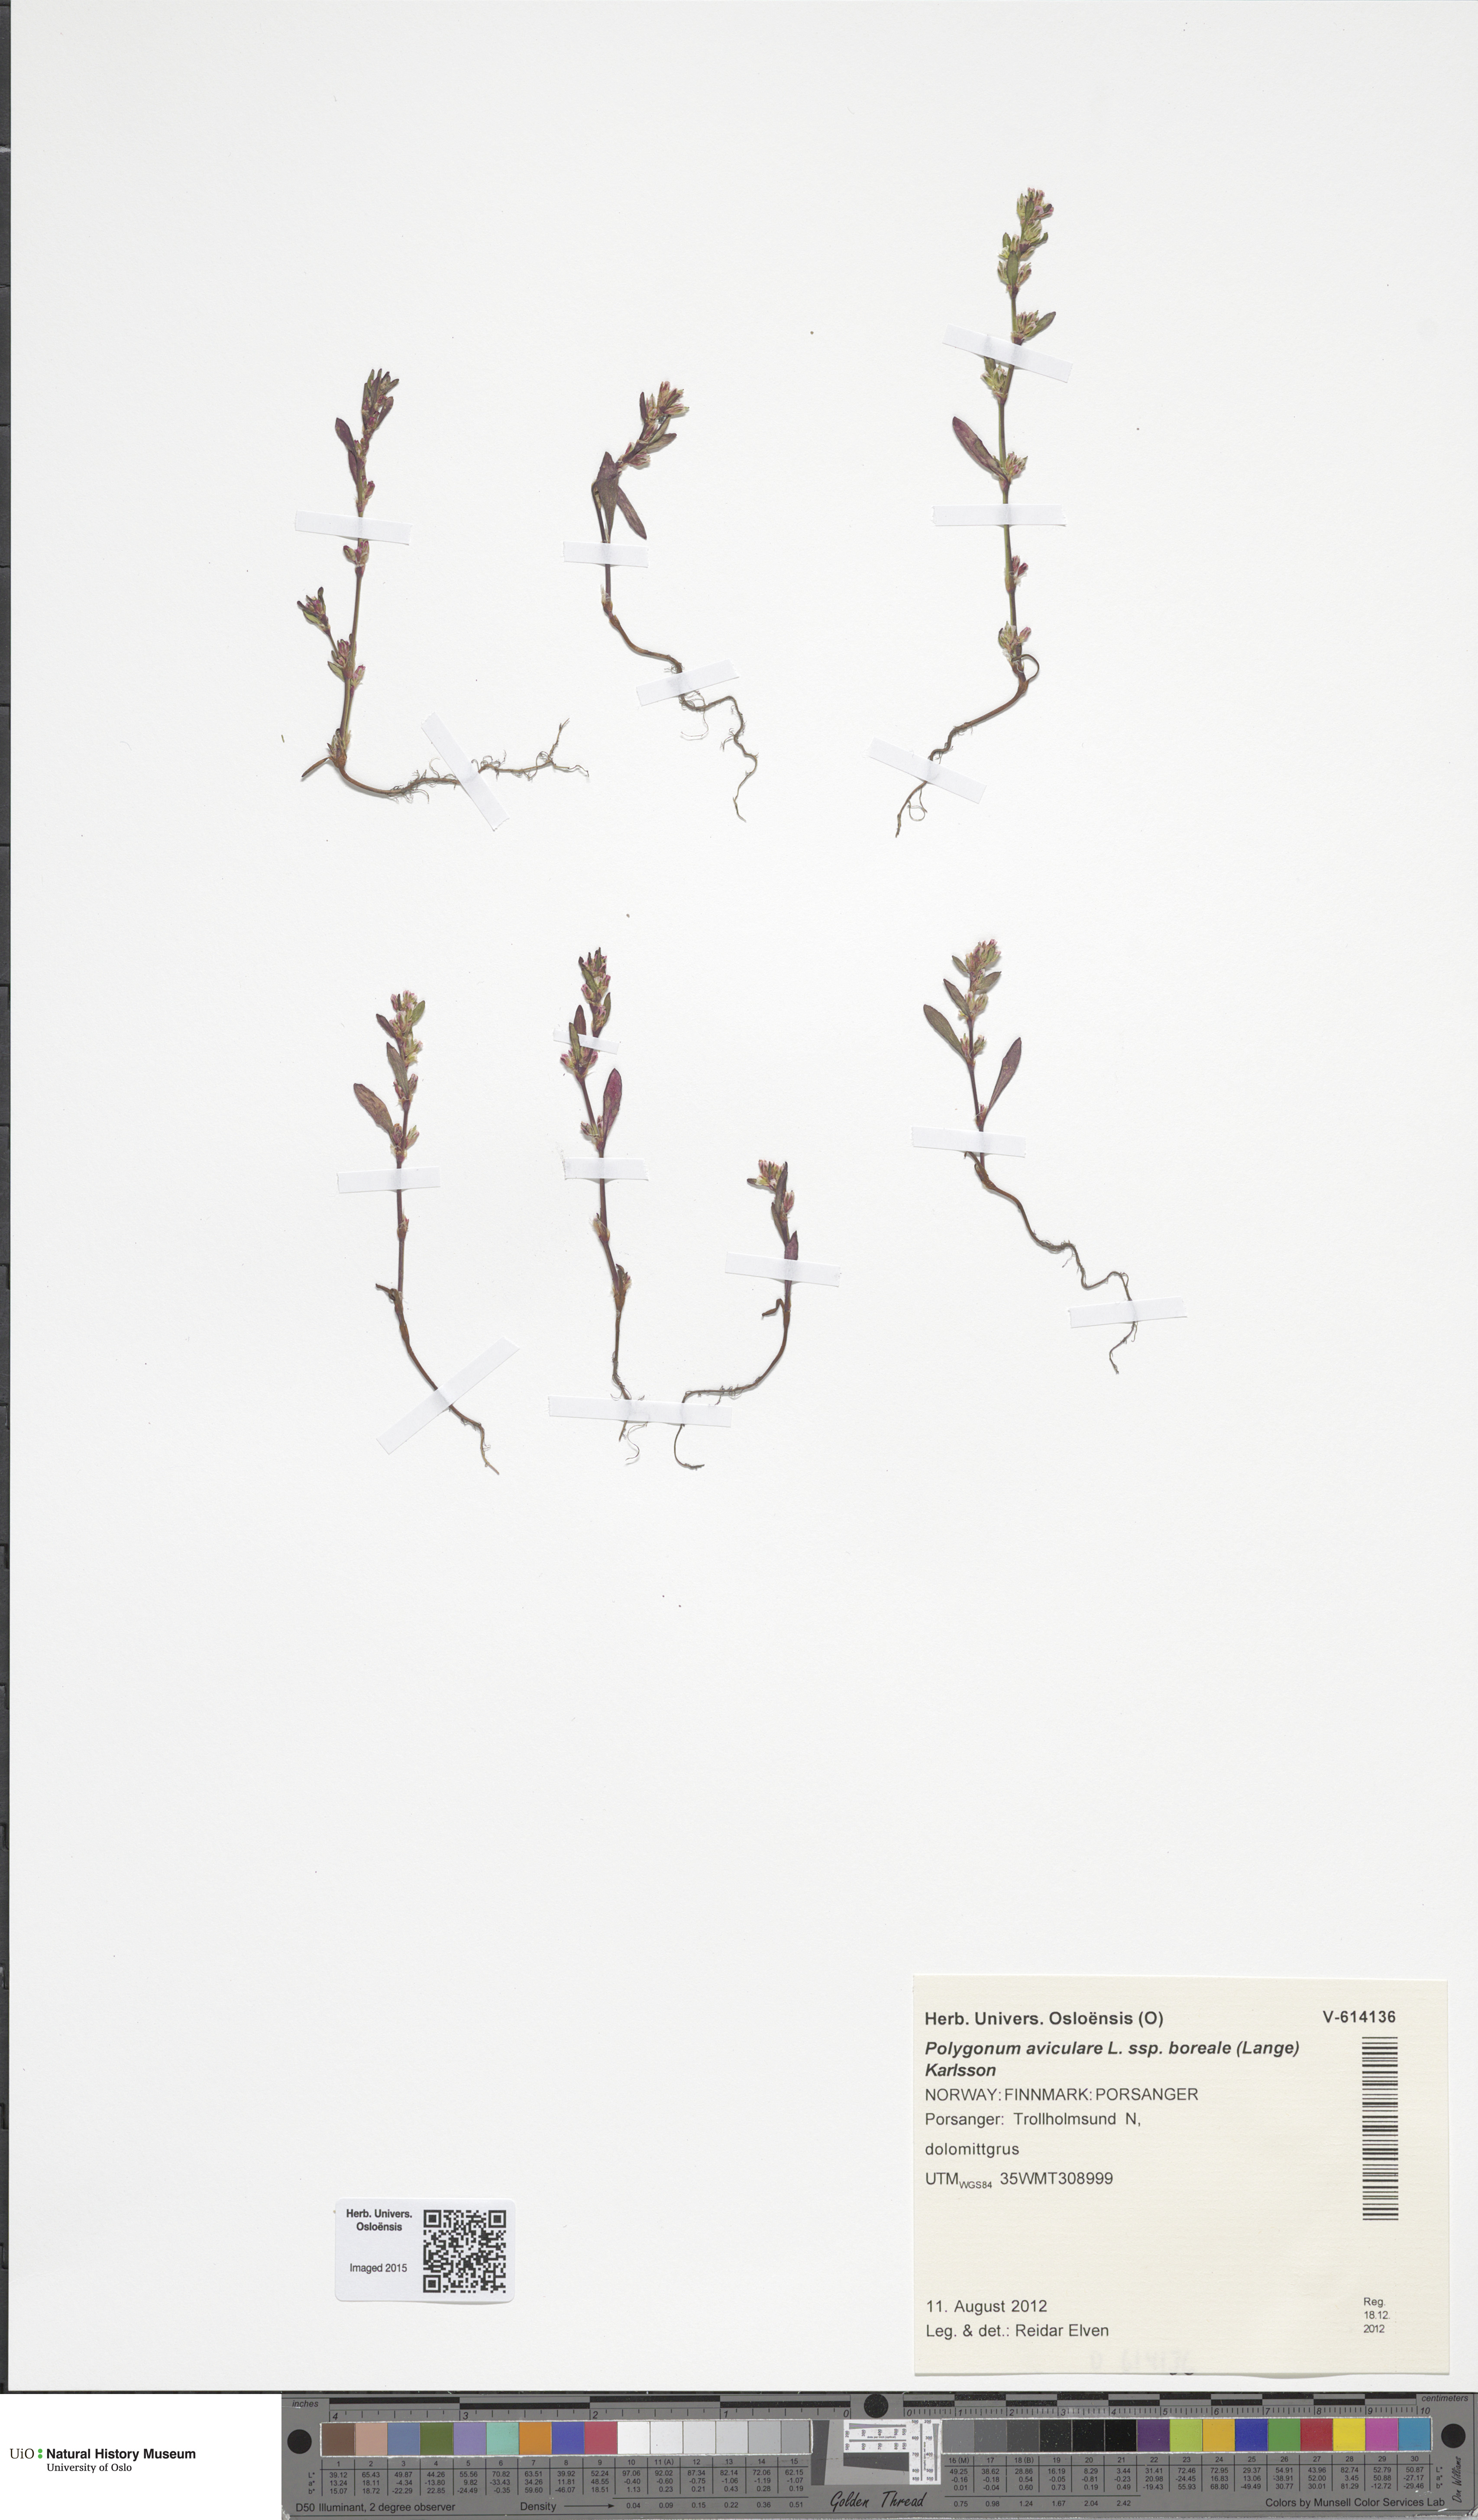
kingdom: Plantae
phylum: Tracheophyta
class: Magnoliopsida
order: Caryophyllales
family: Polygonaceae
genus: Polygonum
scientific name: Polygonum boreale
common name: Northern knotgrass
